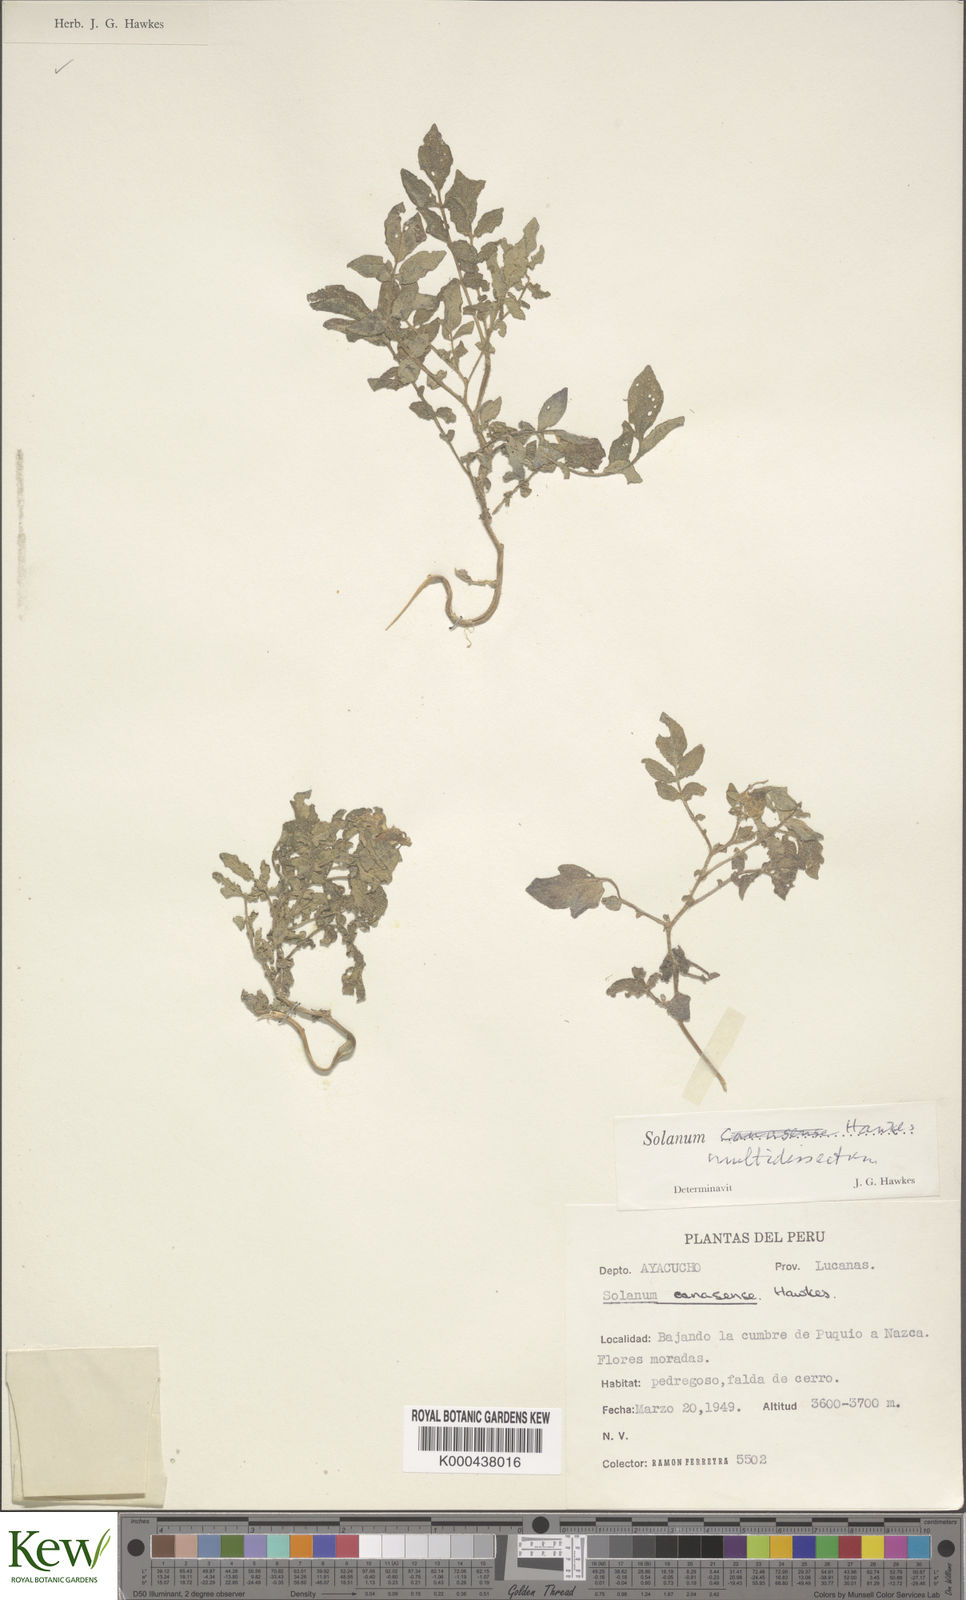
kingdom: Plantae
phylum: Tracheophyta
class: Magnoliopsida
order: Solanales
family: Solanaceae
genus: Solanum
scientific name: Solanum candolleanum
